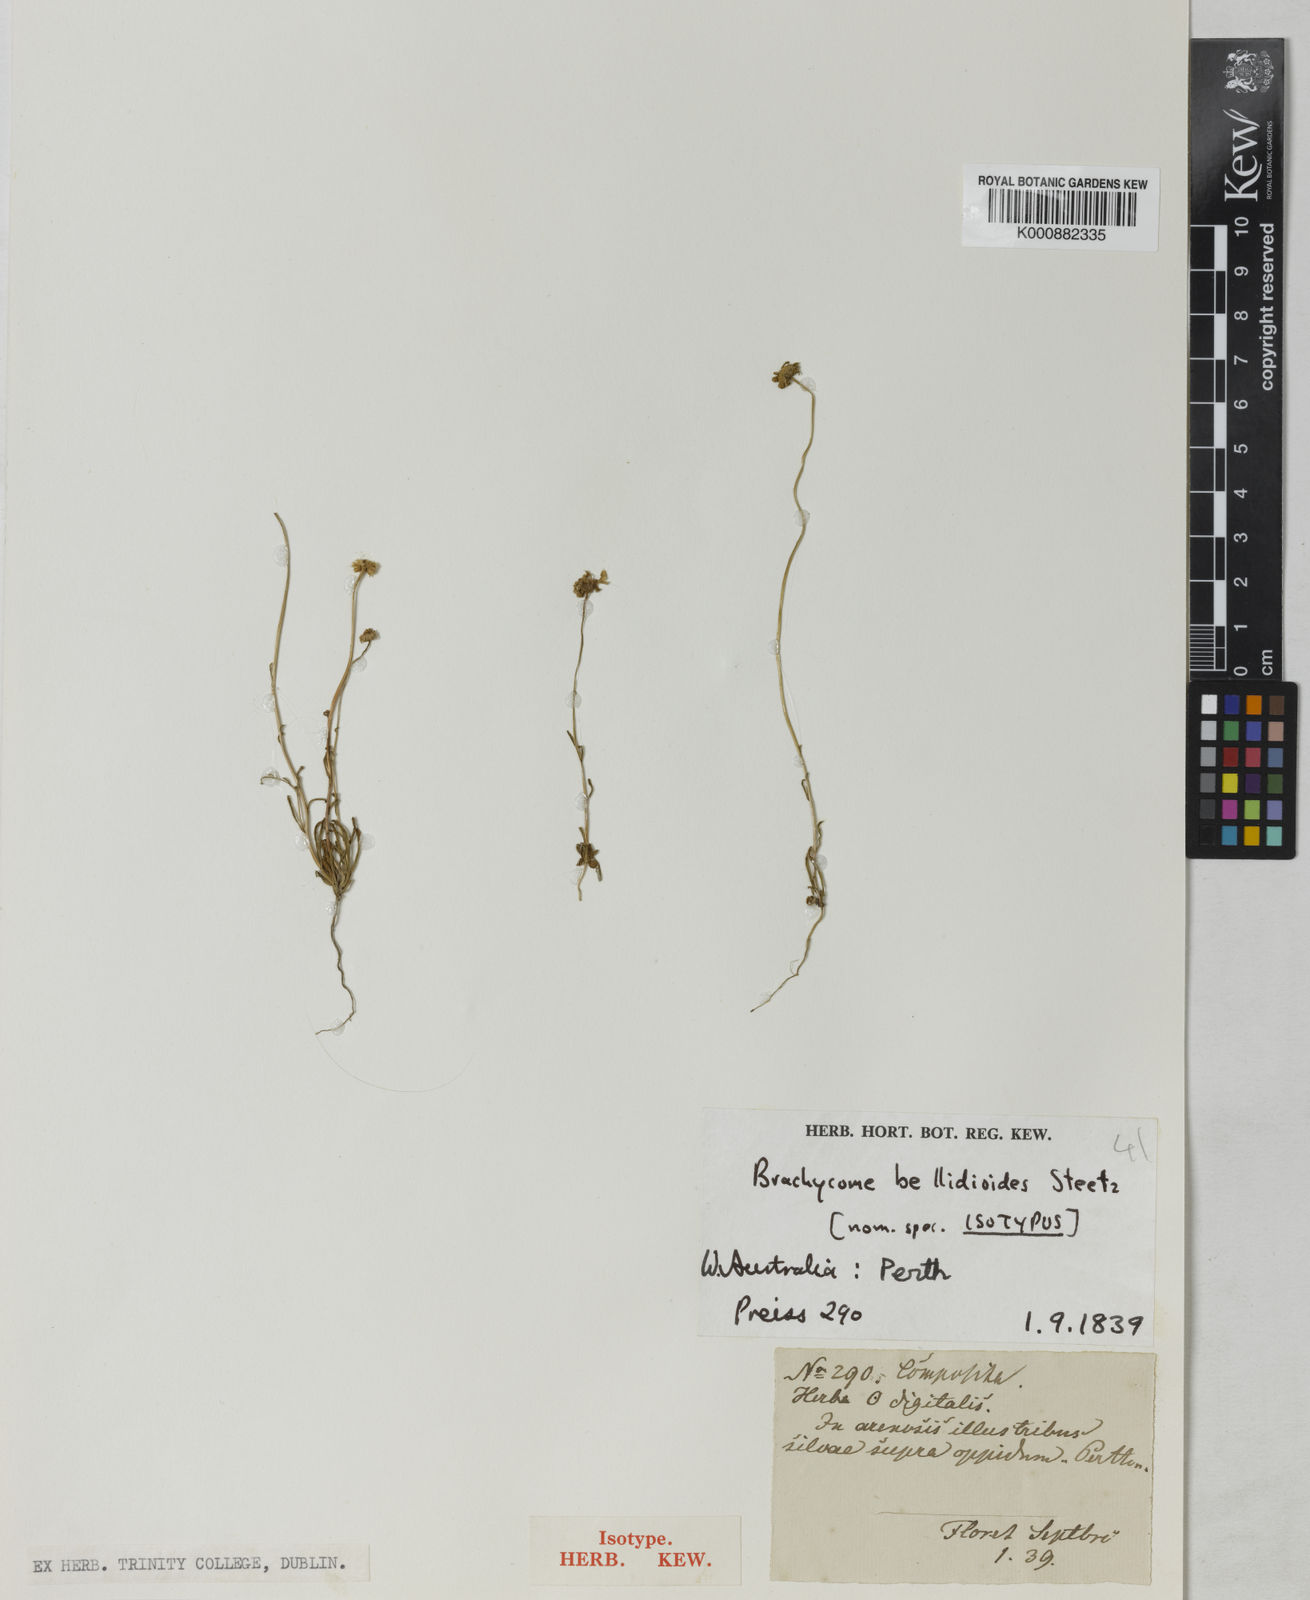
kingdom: Plantae
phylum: Tracheophyta
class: Magnoliopsida
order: Asterales
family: Asteraceae
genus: Brachyscome
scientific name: Brachyscome bellidioides
